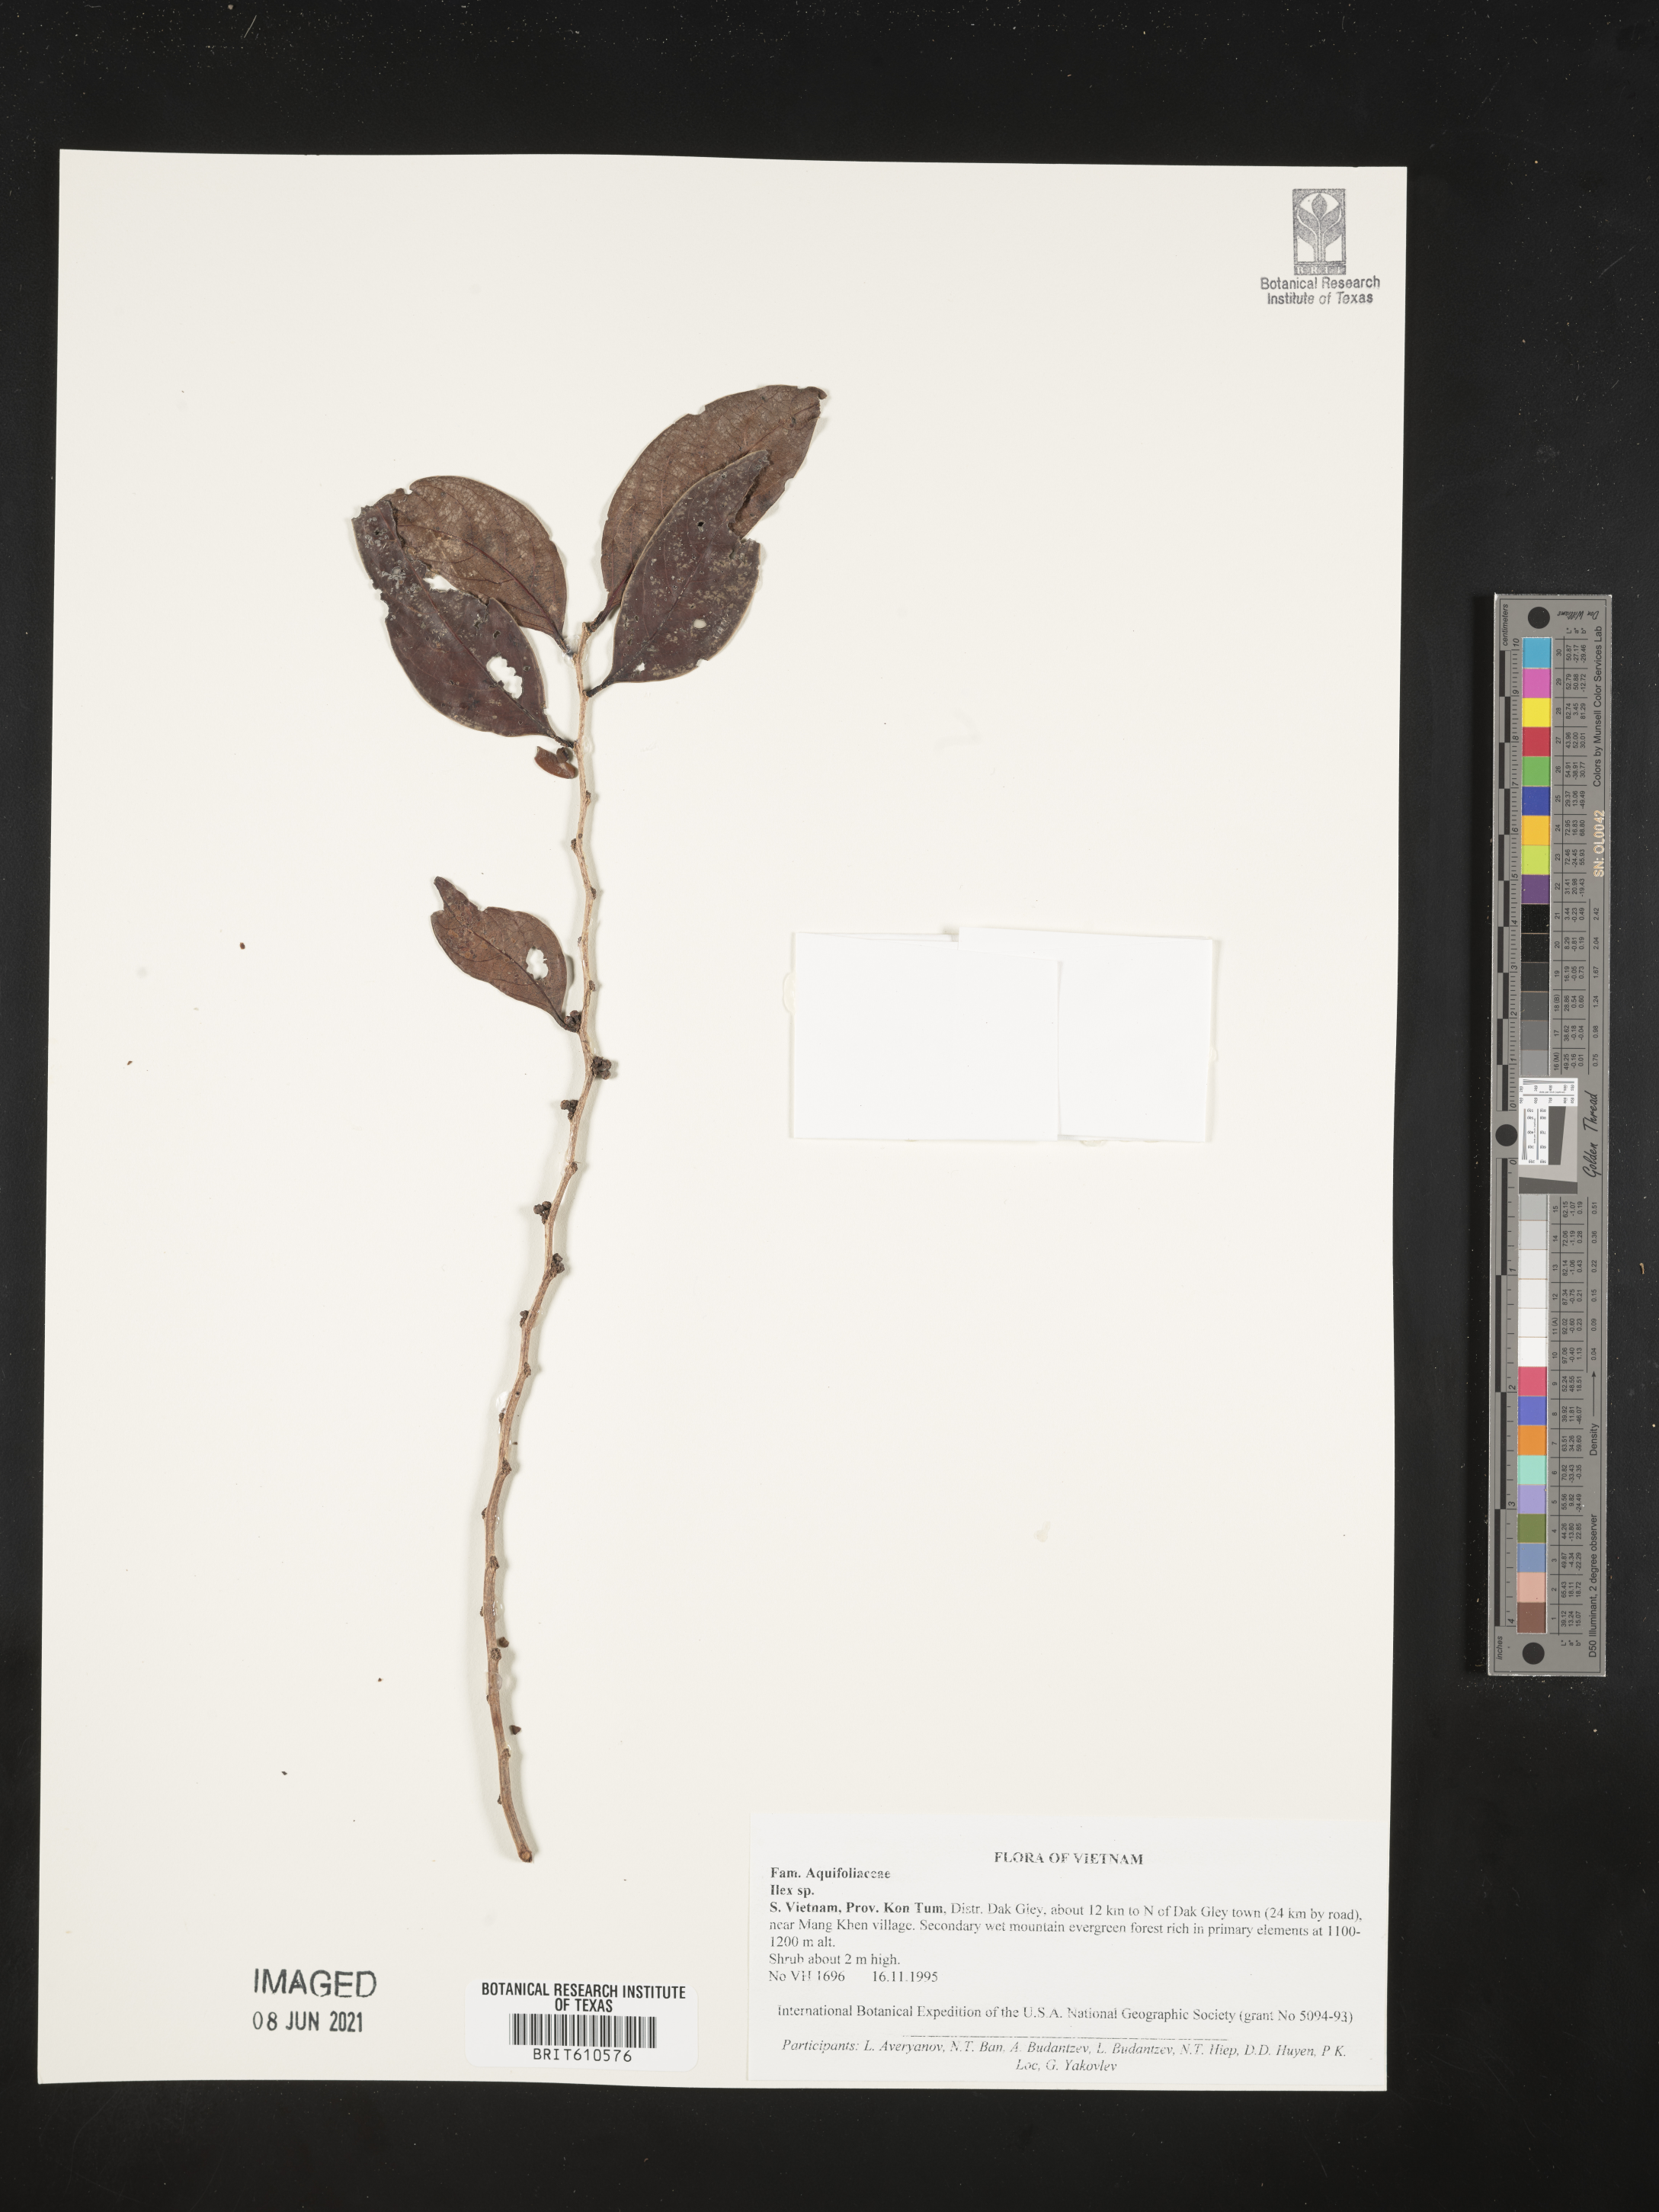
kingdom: Plantae
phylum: Tracheophyta
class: Magnoliopsida
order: Aquifoliales
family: Aquifoliaceae
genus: Ilex
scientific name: Ilex
